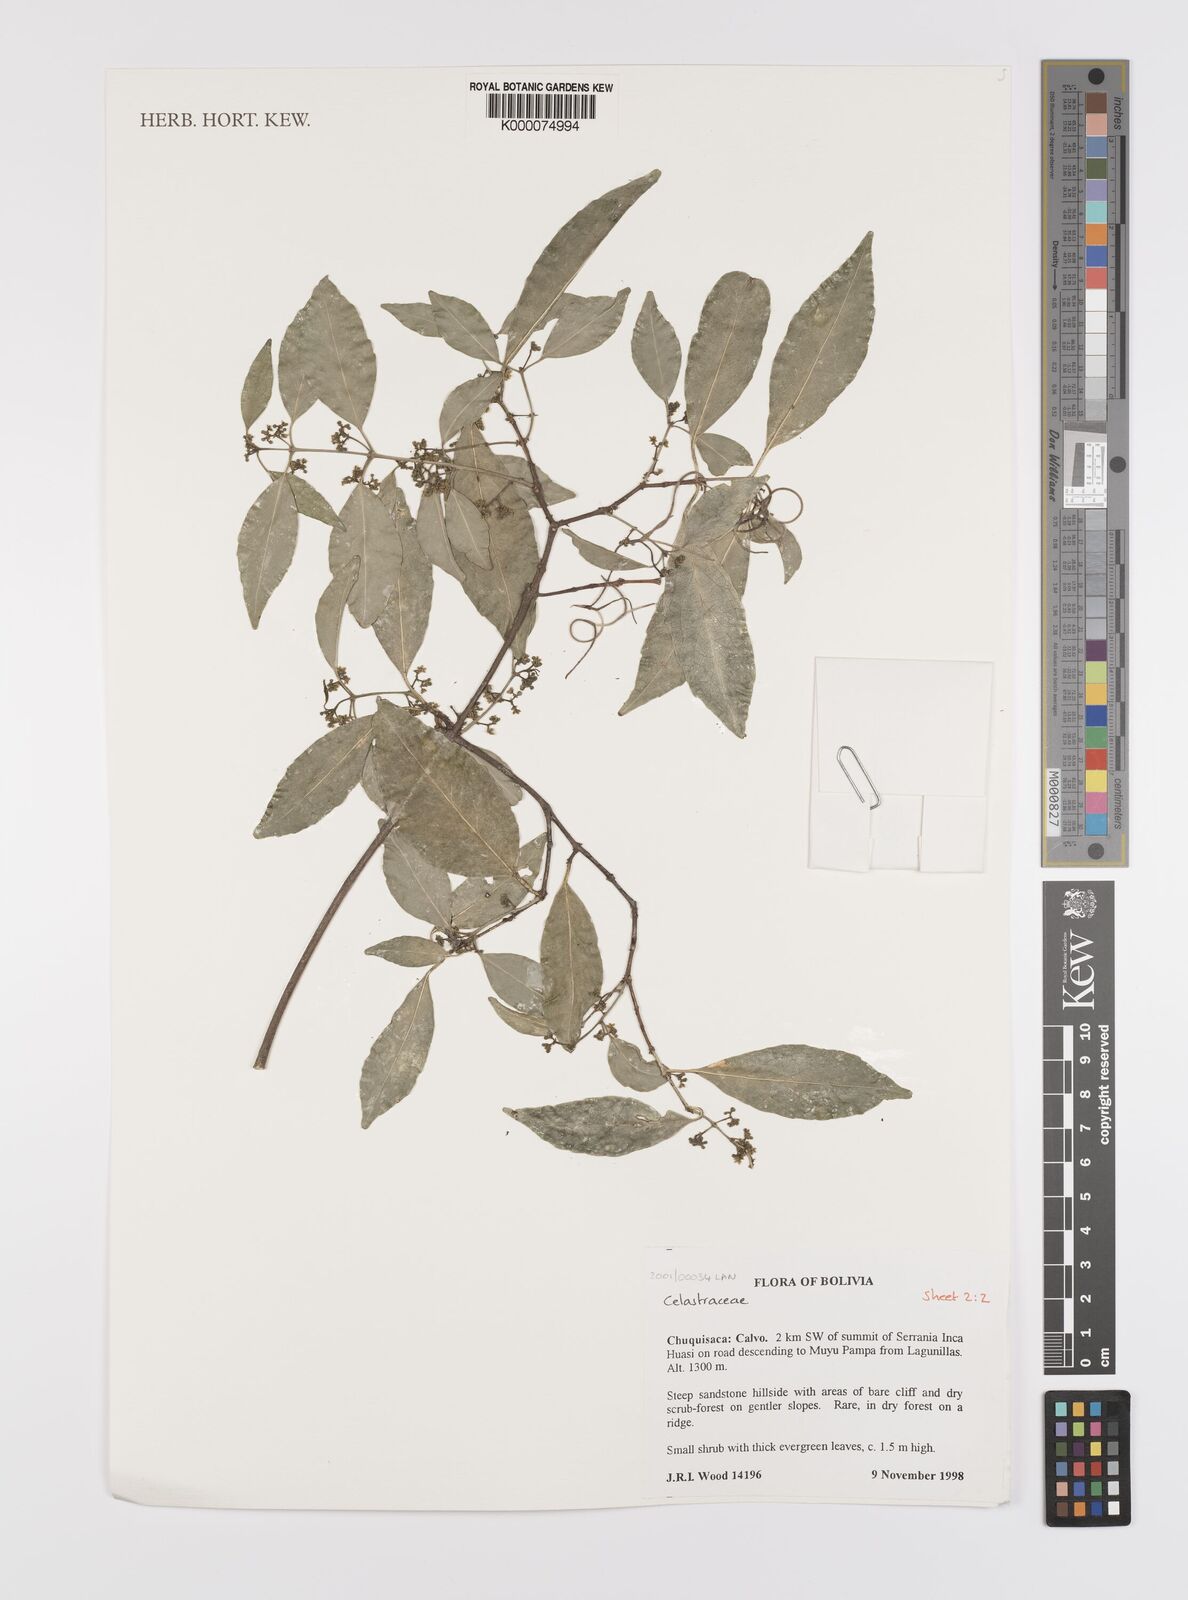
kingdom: Plantae
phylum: Tracheophyta
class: Magnoliopsida
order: Celastrales
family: Celastraceae
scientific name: Celastraceae
